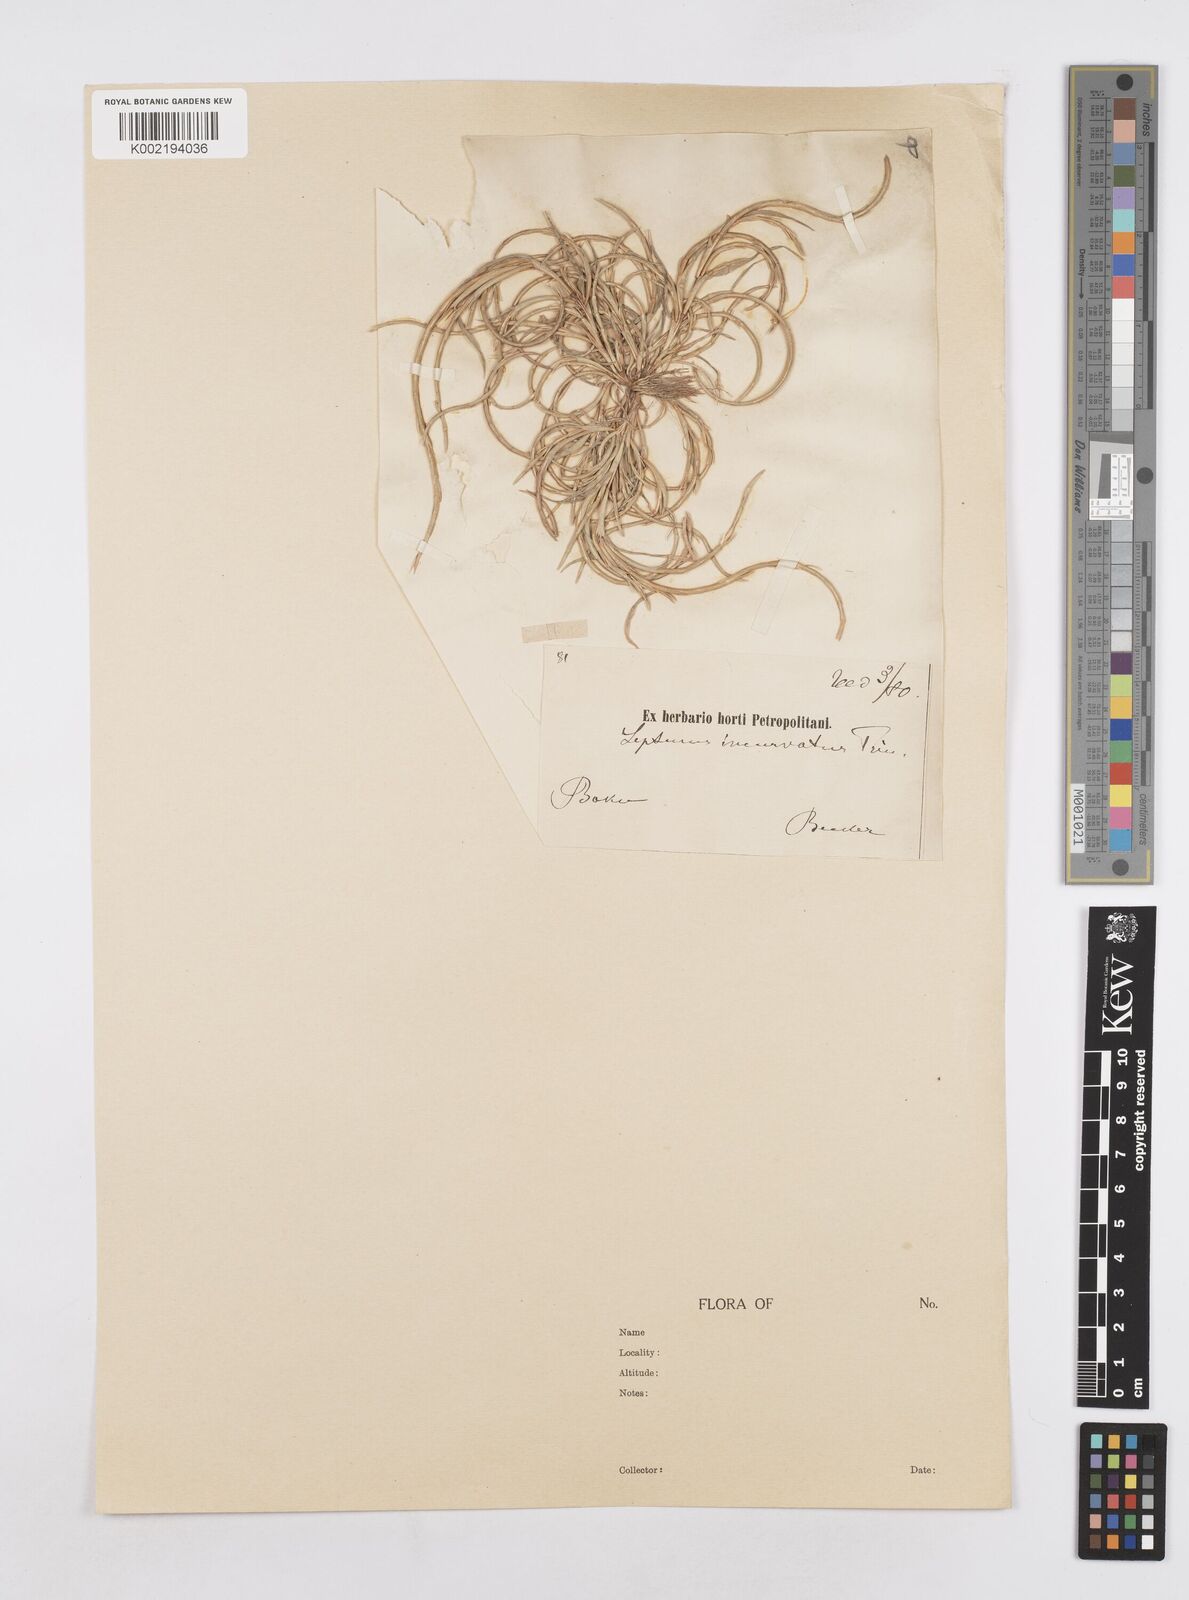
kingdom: Plantae
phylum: Tracheophyta
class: Liliopsida
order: Poales
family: Poaceae
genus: Parapholis
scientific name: Parapholis incurva
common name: Curved sicklegrass
